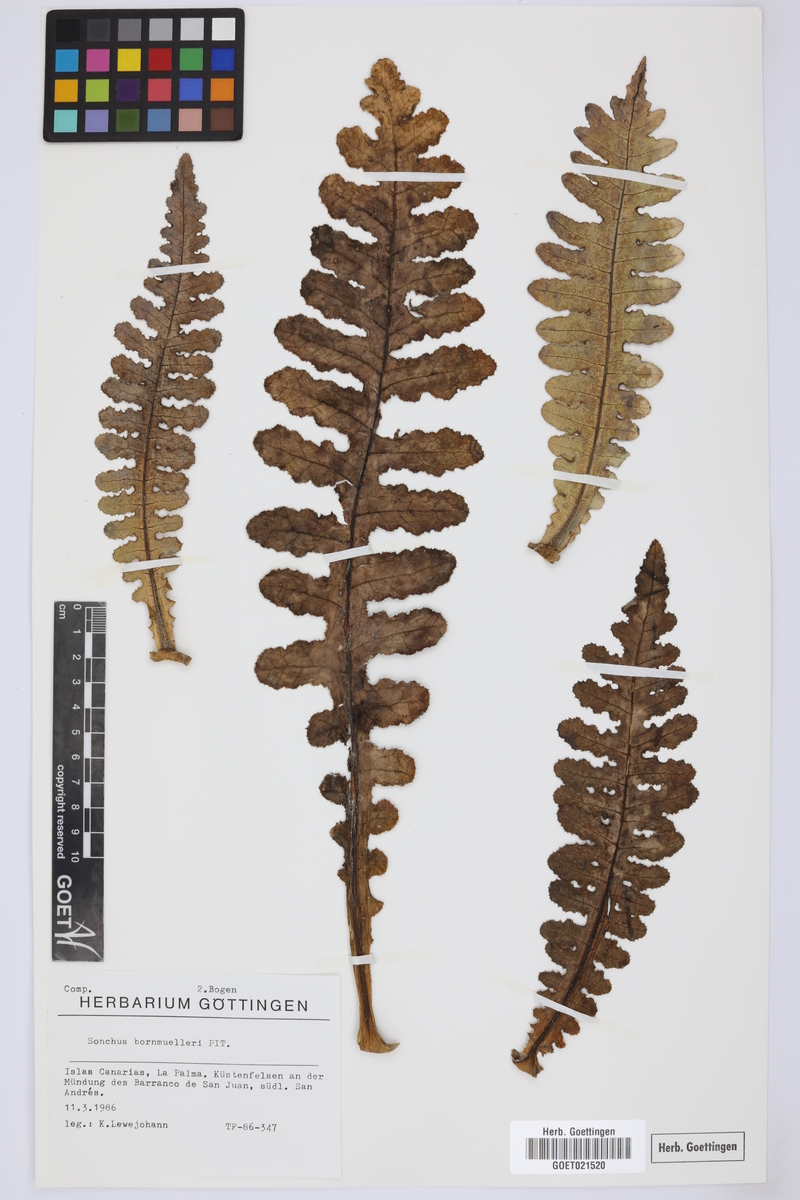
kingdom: Plantae
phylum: Tracheophyta
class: Magnoliopsida
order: Asterales
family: Asteraceae
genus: Sonchus
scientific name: Sonchus bornmuelleri
